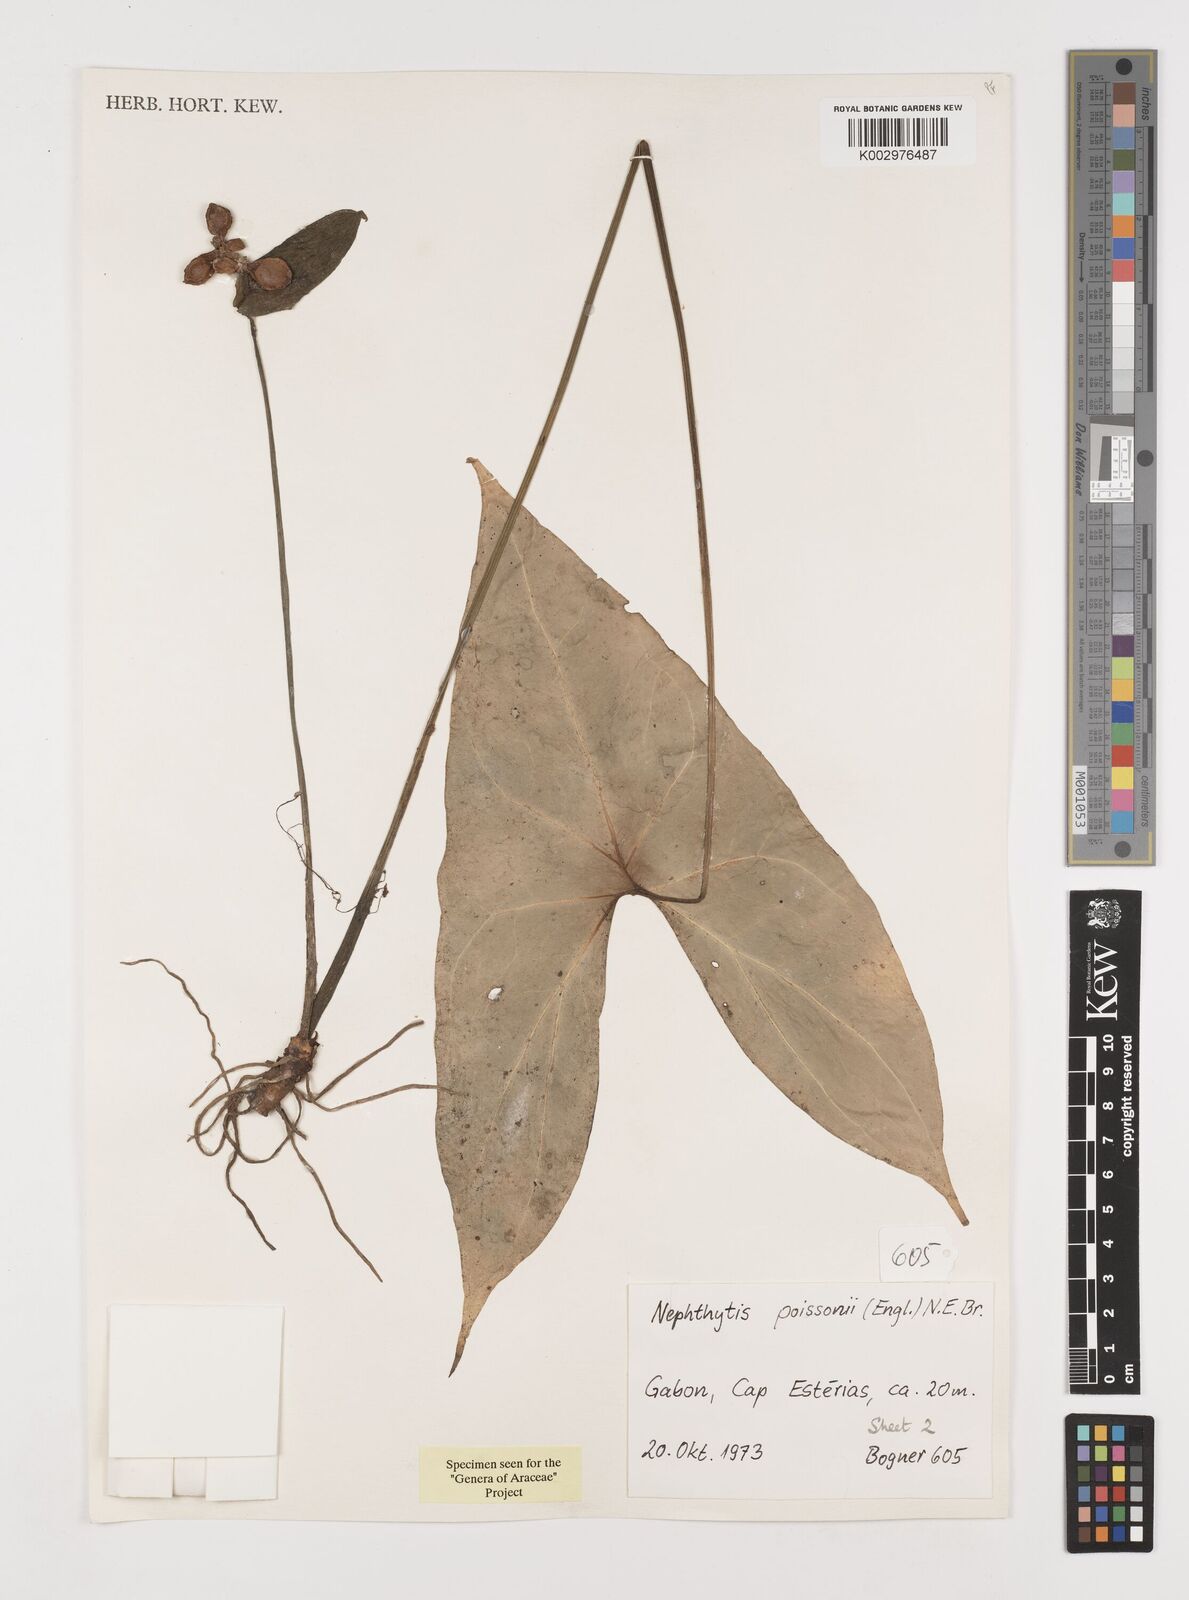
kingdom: Plantae
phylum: Tracheophyta
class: Liliopsida
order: Alismatales
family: Araceae
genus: Nephthytis
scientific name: Nephthytis poissonii
